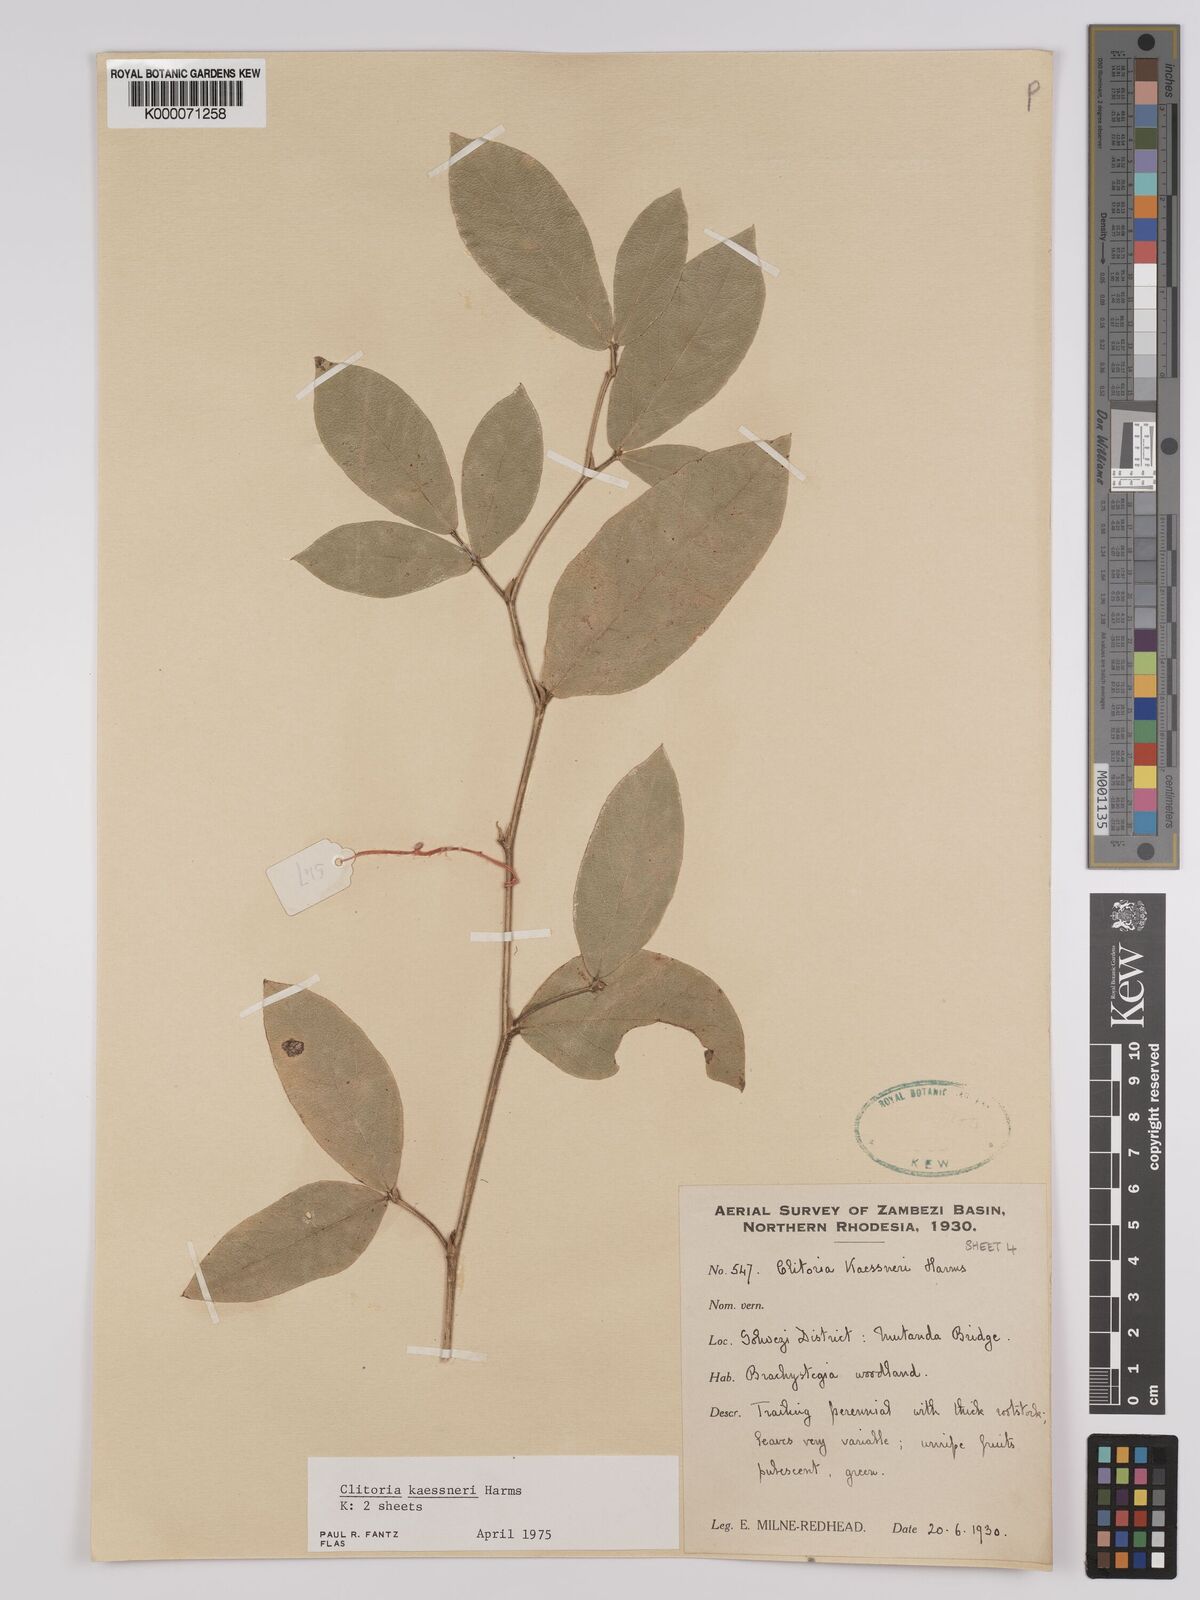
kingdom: Plantae
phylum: Tracheophyta
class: Magnoliopsida
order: Fabales
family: Fabaceae
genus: Clitoria
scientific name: Clitoria kaessneri
